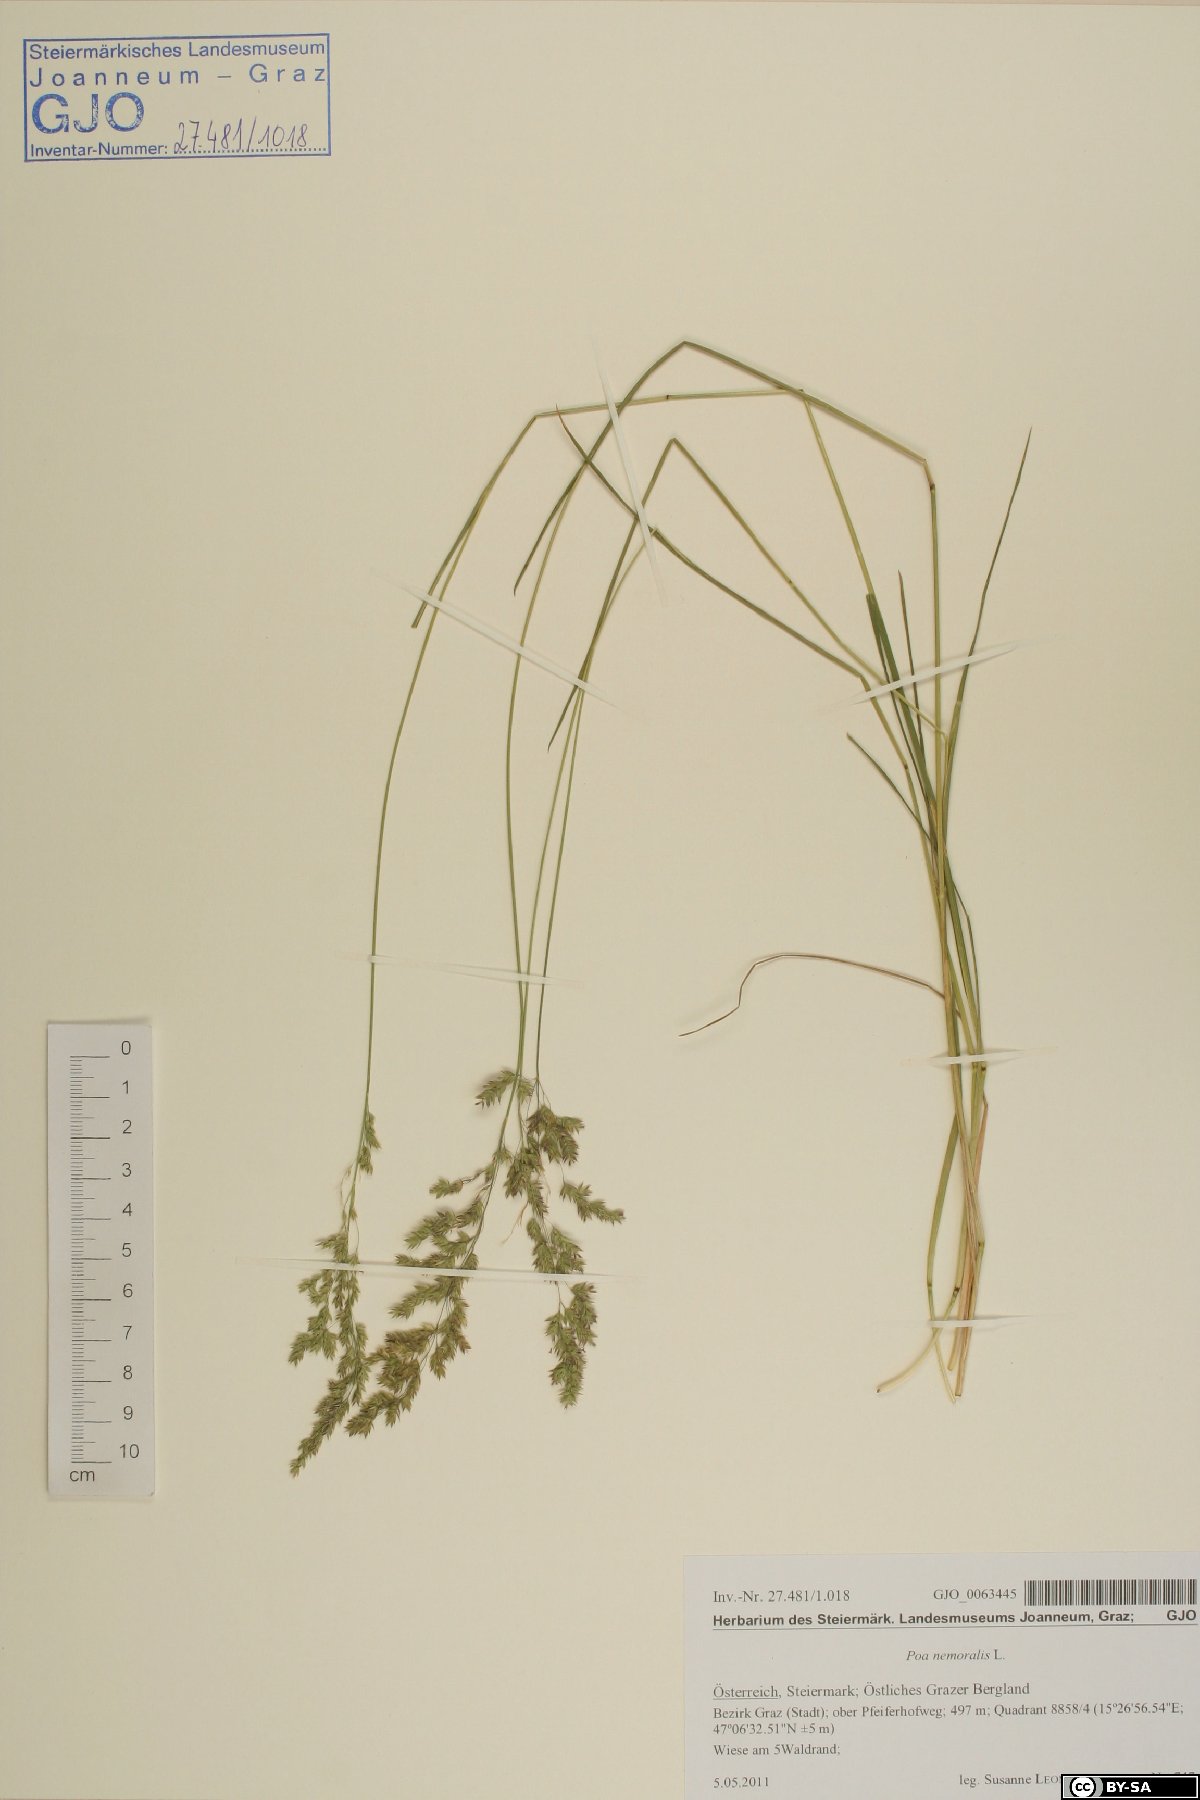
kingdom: Plantae
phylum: Tracheophyta
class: Liliopsida
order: Poales
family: Poaceae
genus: Poa
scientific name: Poa angustifolia
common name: Narrow-leaved meadow-grass
